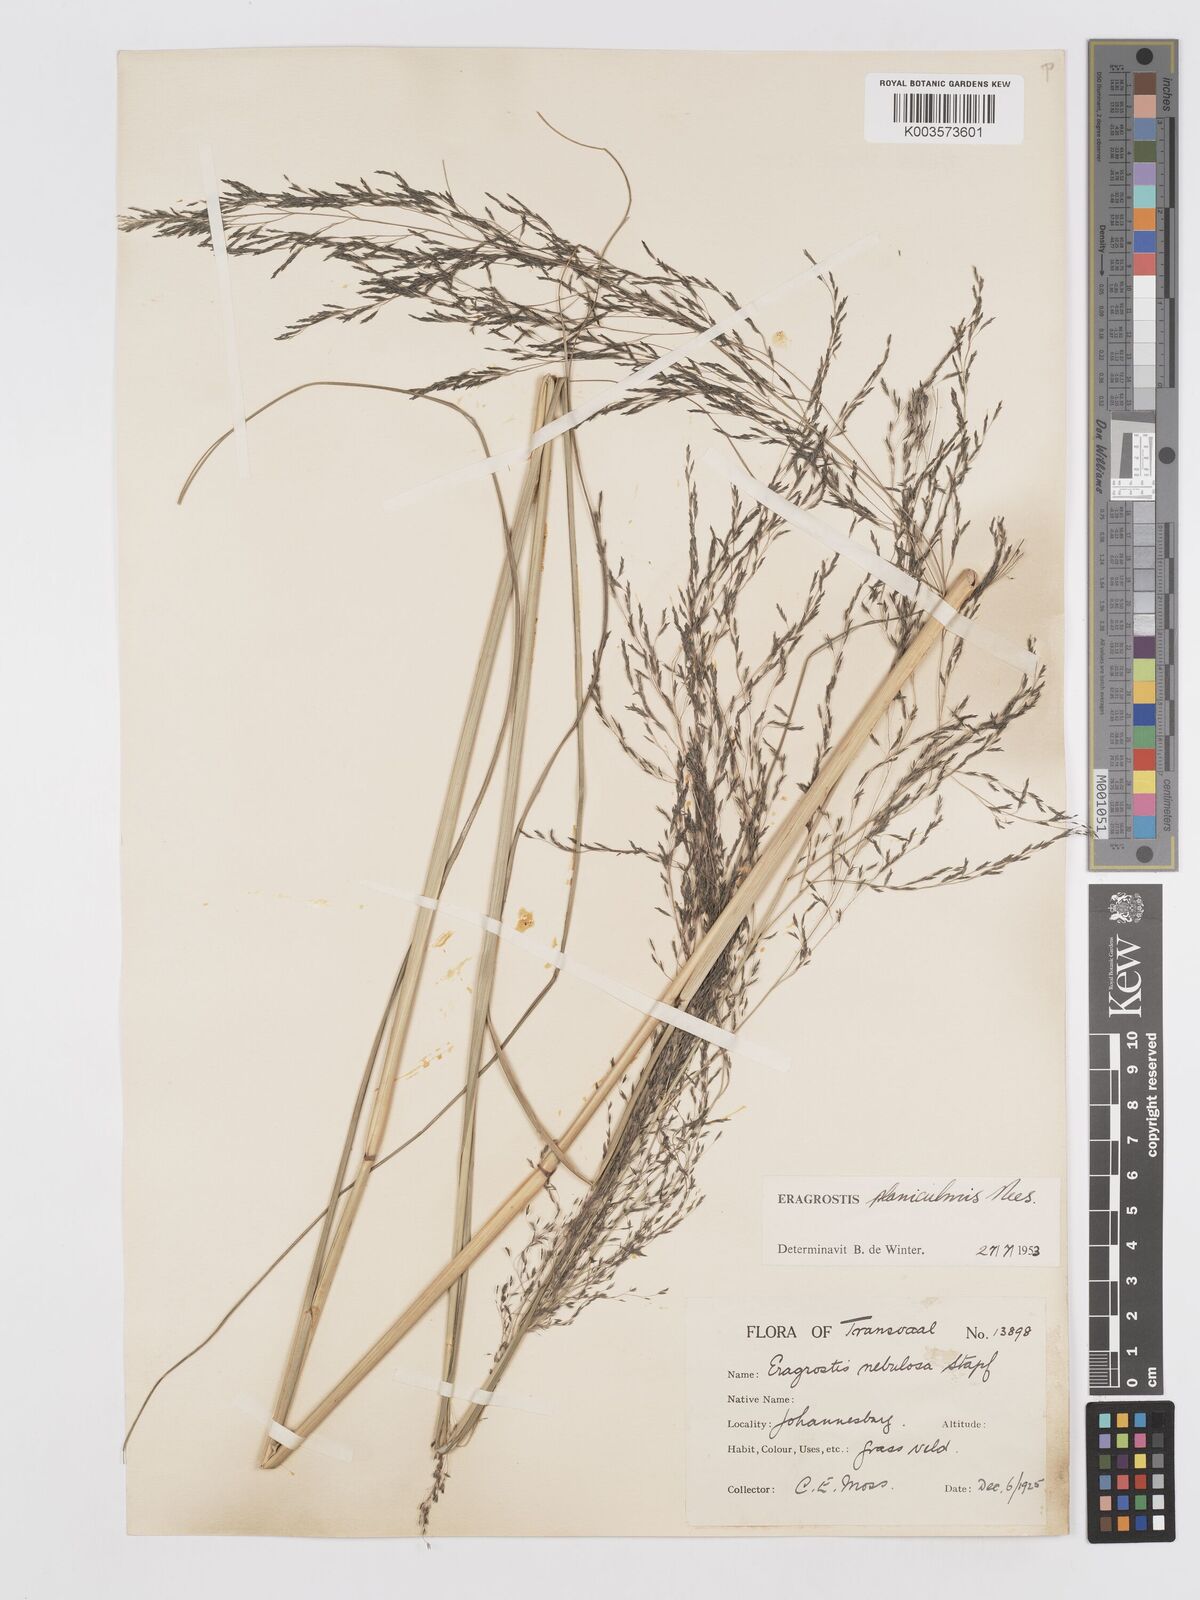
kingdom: Plantae
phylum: Tracheophyta
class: Liliopsida
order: Poales
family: Poaceae
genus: Eragrostis
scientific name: Eragrostis planiculmis
